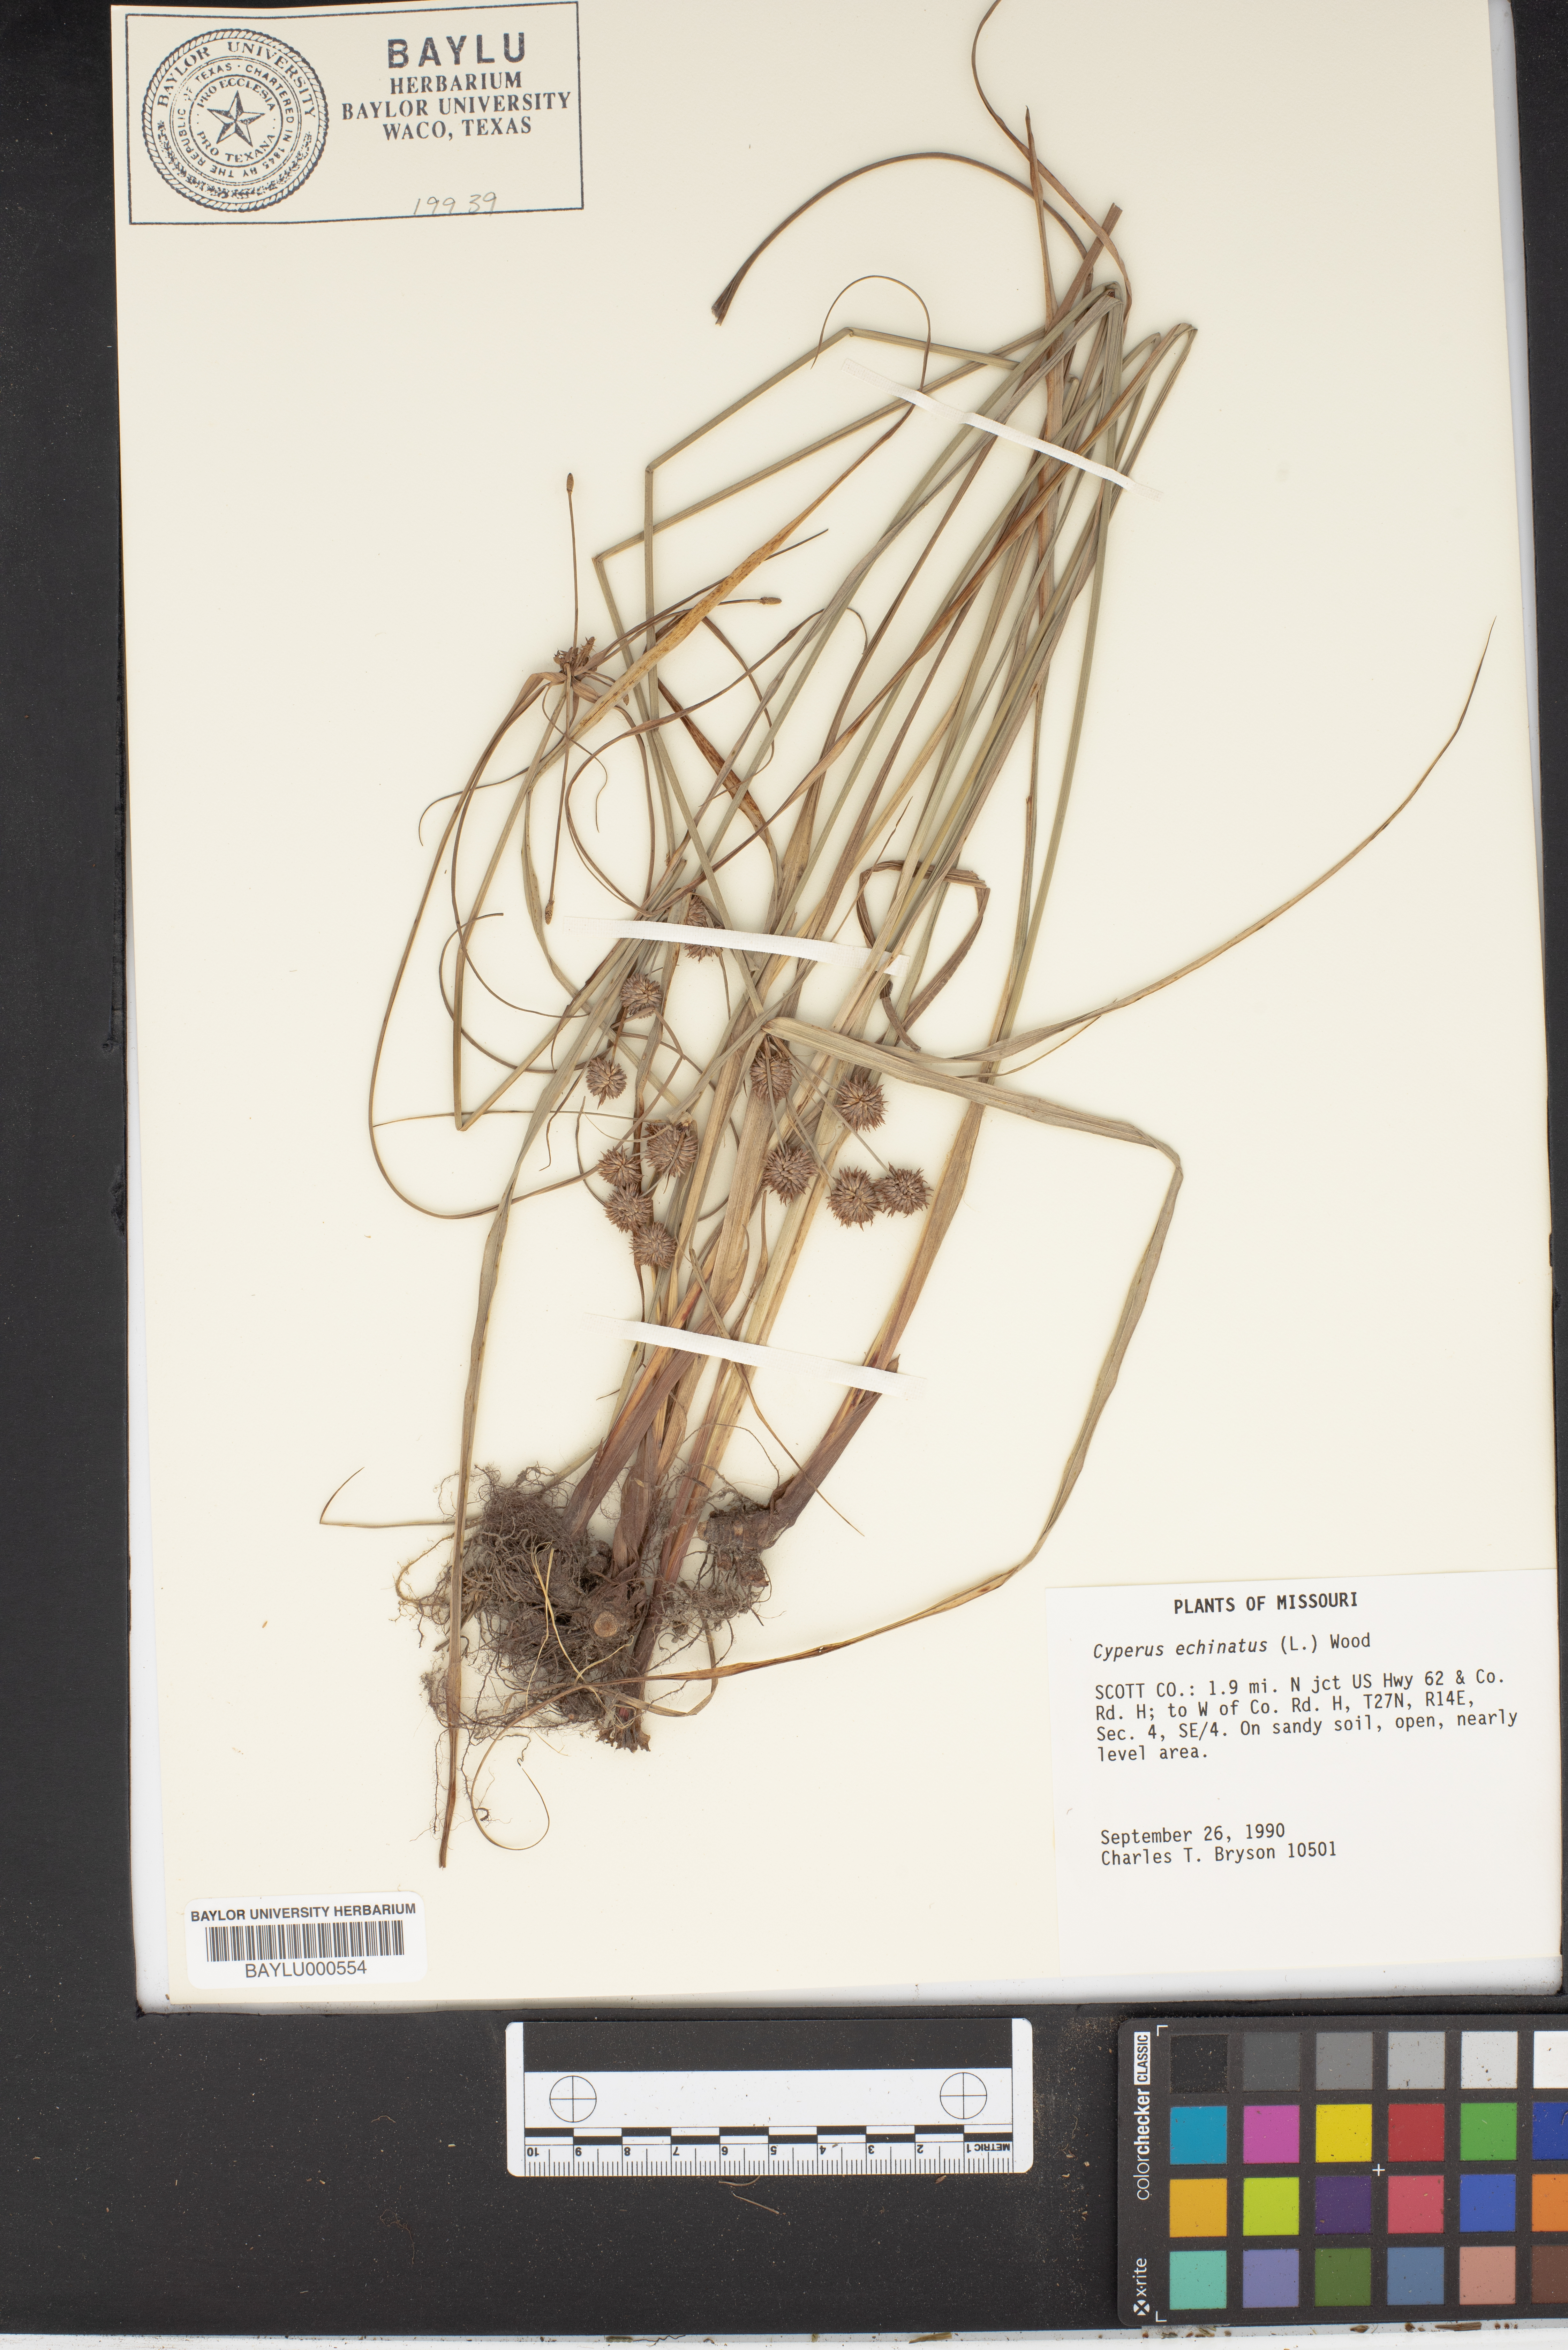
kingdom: Plantae
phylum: Tracheophyta
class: Liliopsida
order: Poales
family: Cyperaceae
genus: Cyperus
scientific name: Cyperus echinatus
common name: Teasel sedge
